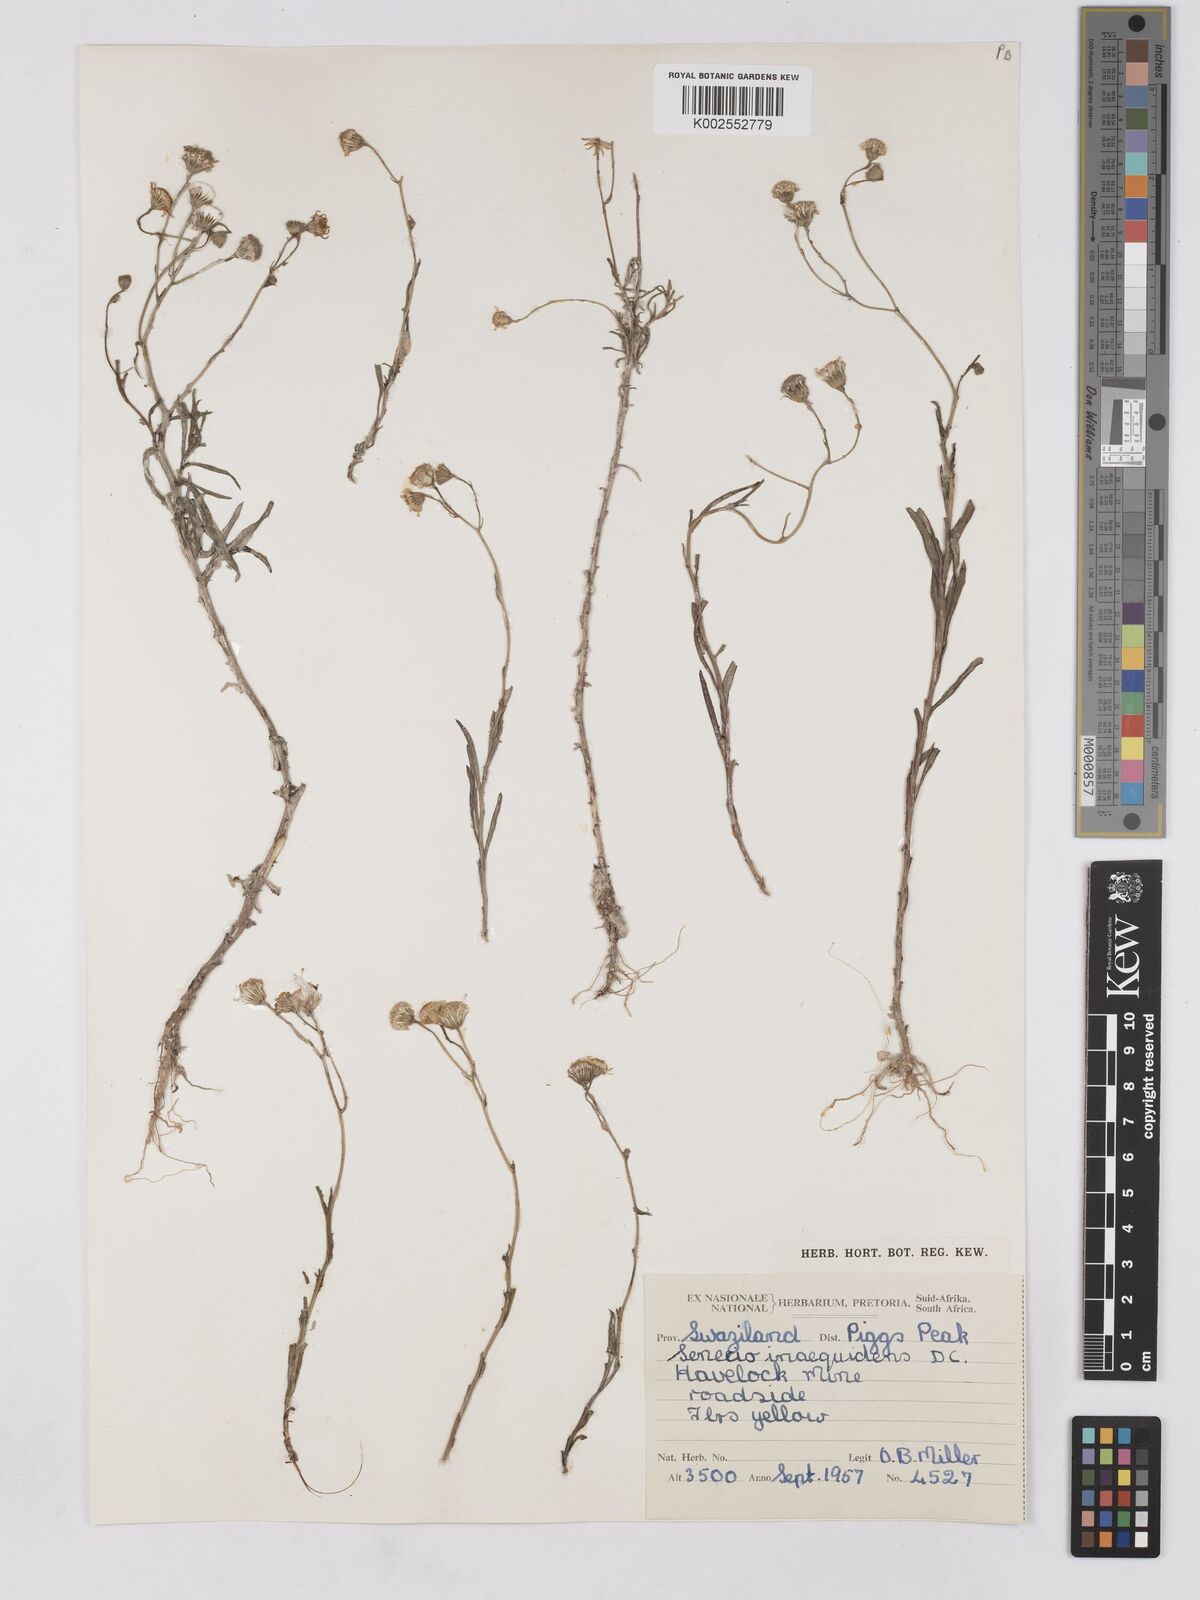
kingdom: Plantae
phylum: Tracheophyta
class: Magnoliopsida
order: Asterales
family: Asteraceae
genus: Senecio
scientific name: Senecio madagascariensis
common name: Madagascar ragwort
